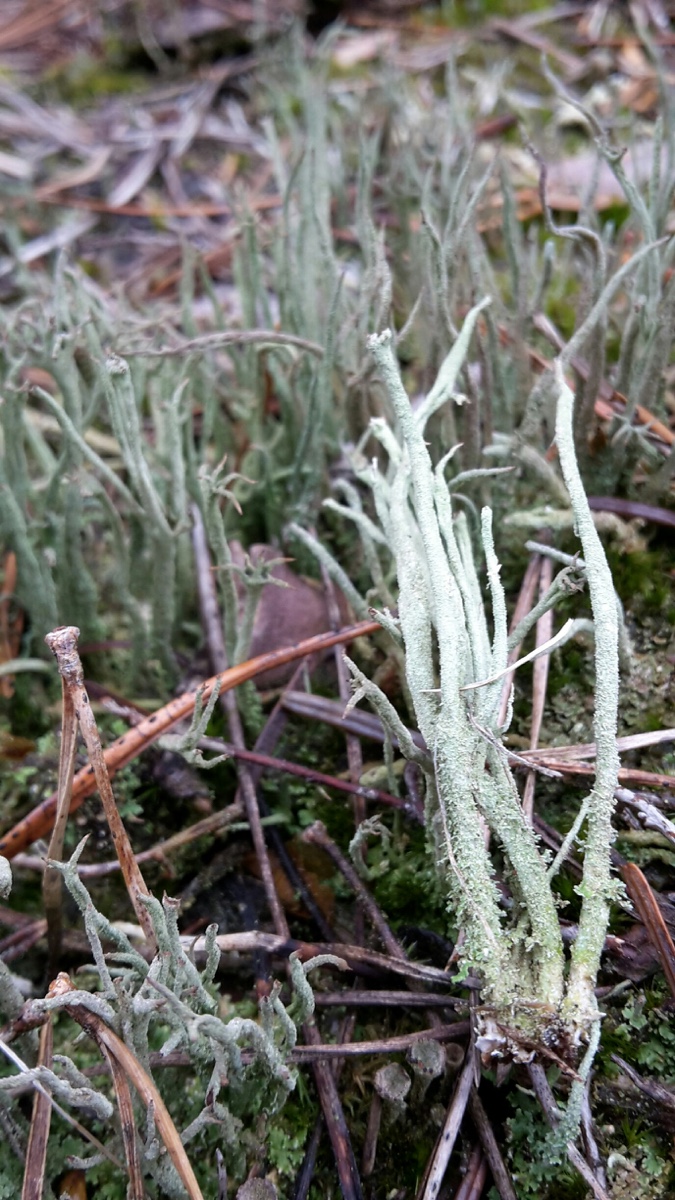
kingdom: Fungi
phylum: Ascomycota
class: Lecanoromycetes
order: Lecanorales
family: Cladoniaceae
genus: Cladonia
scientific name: Cladonia glauca
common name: grågrøn bægerlav
